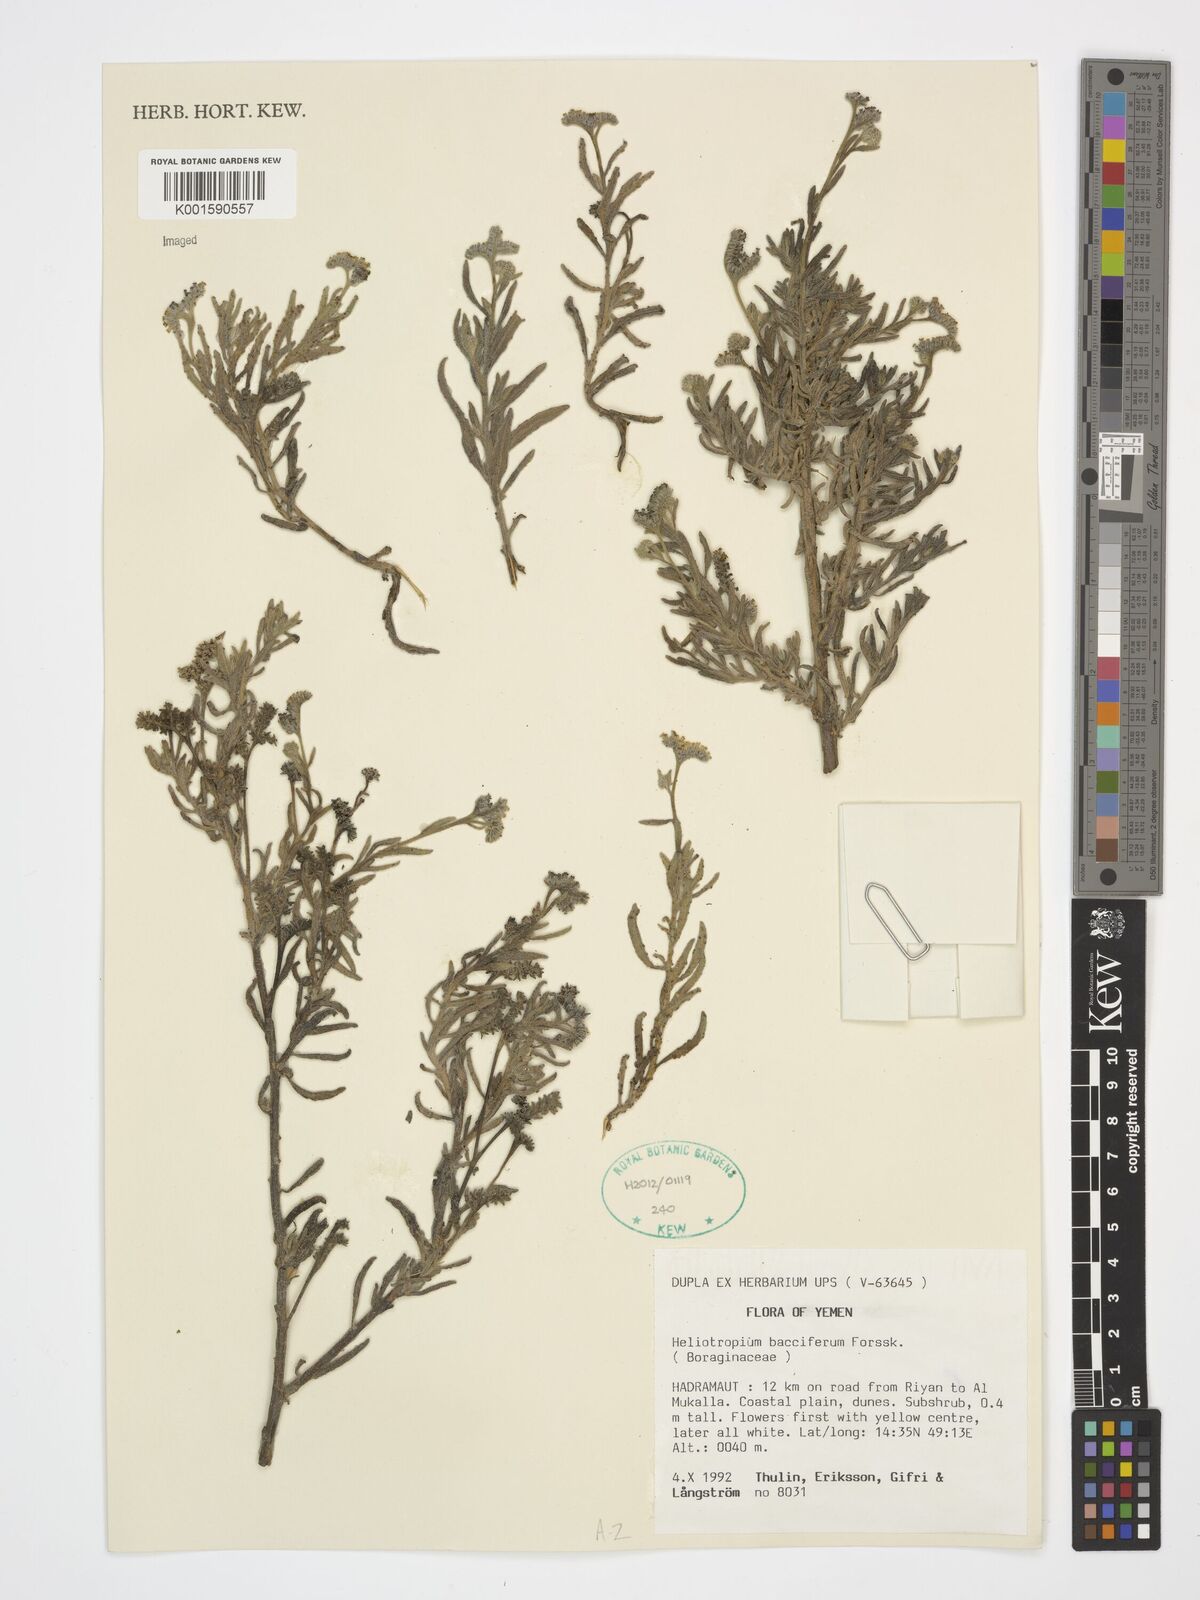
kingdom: Plantae
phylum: Tracheophyta
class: Magnoliopsida
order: Boraginales
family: Heliotropiaceae
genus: Heliotropium
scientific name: Heliotropium bacciferum
